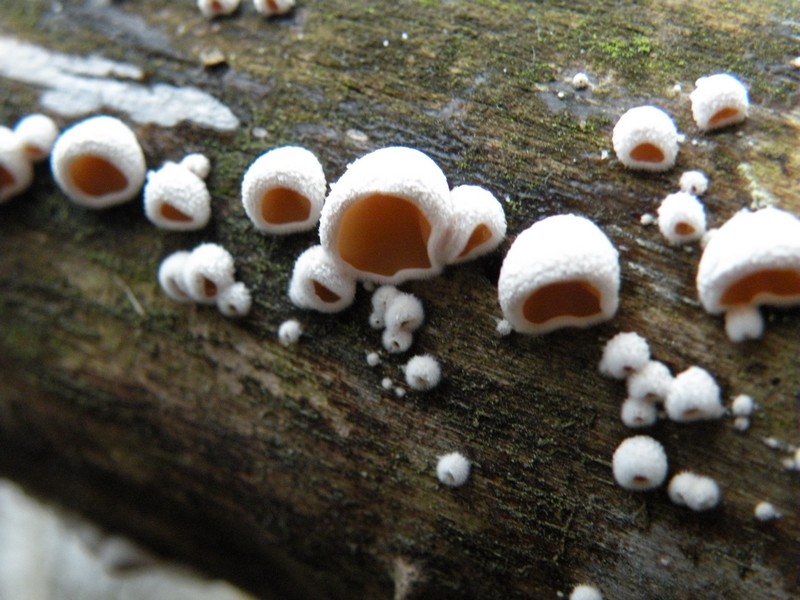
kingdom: Fungi
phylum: Basidiomycota
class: Agaricomycetes
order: Agaricales
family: Schizophyllaceae
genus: Schizophyllum
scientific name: Schizophyllum amplum
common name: poppel-hængeøre
